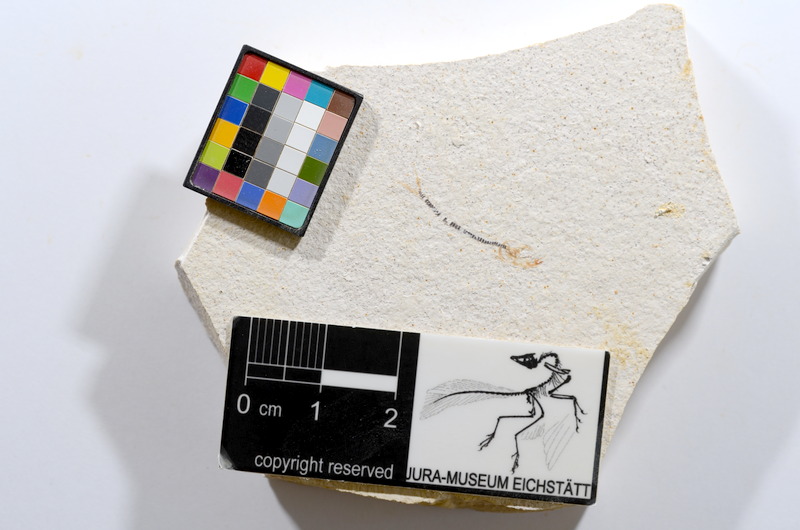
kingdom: Animalia
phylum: Chordata
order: Salmoniformes
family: Orthogonikleithridae
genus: Orthogonikleithrus
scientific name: Orthogonikleithrus hoelli
